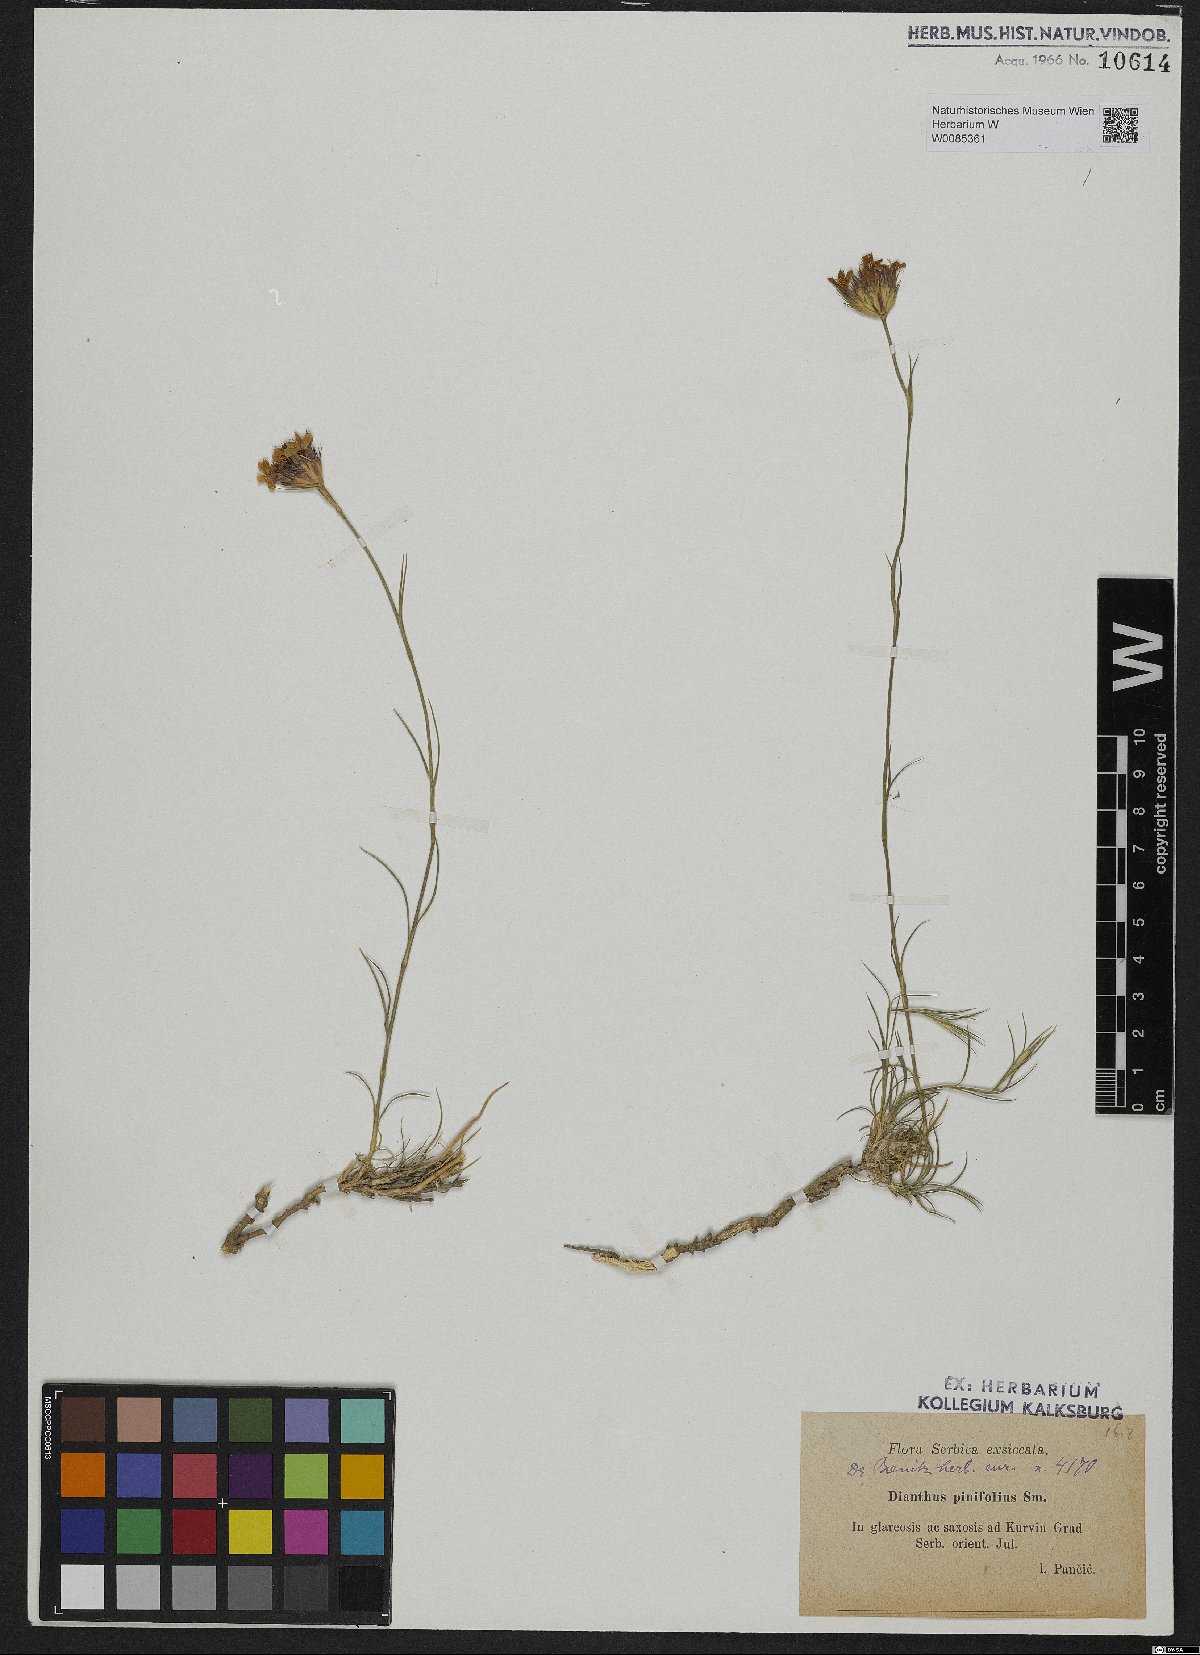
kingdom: Plantae
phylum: Tracheophyta
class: Magnoliopsida
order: Caryophyllales
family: Caryophyllaceae
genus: Dianthus
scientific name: Dianthus pinifolius
